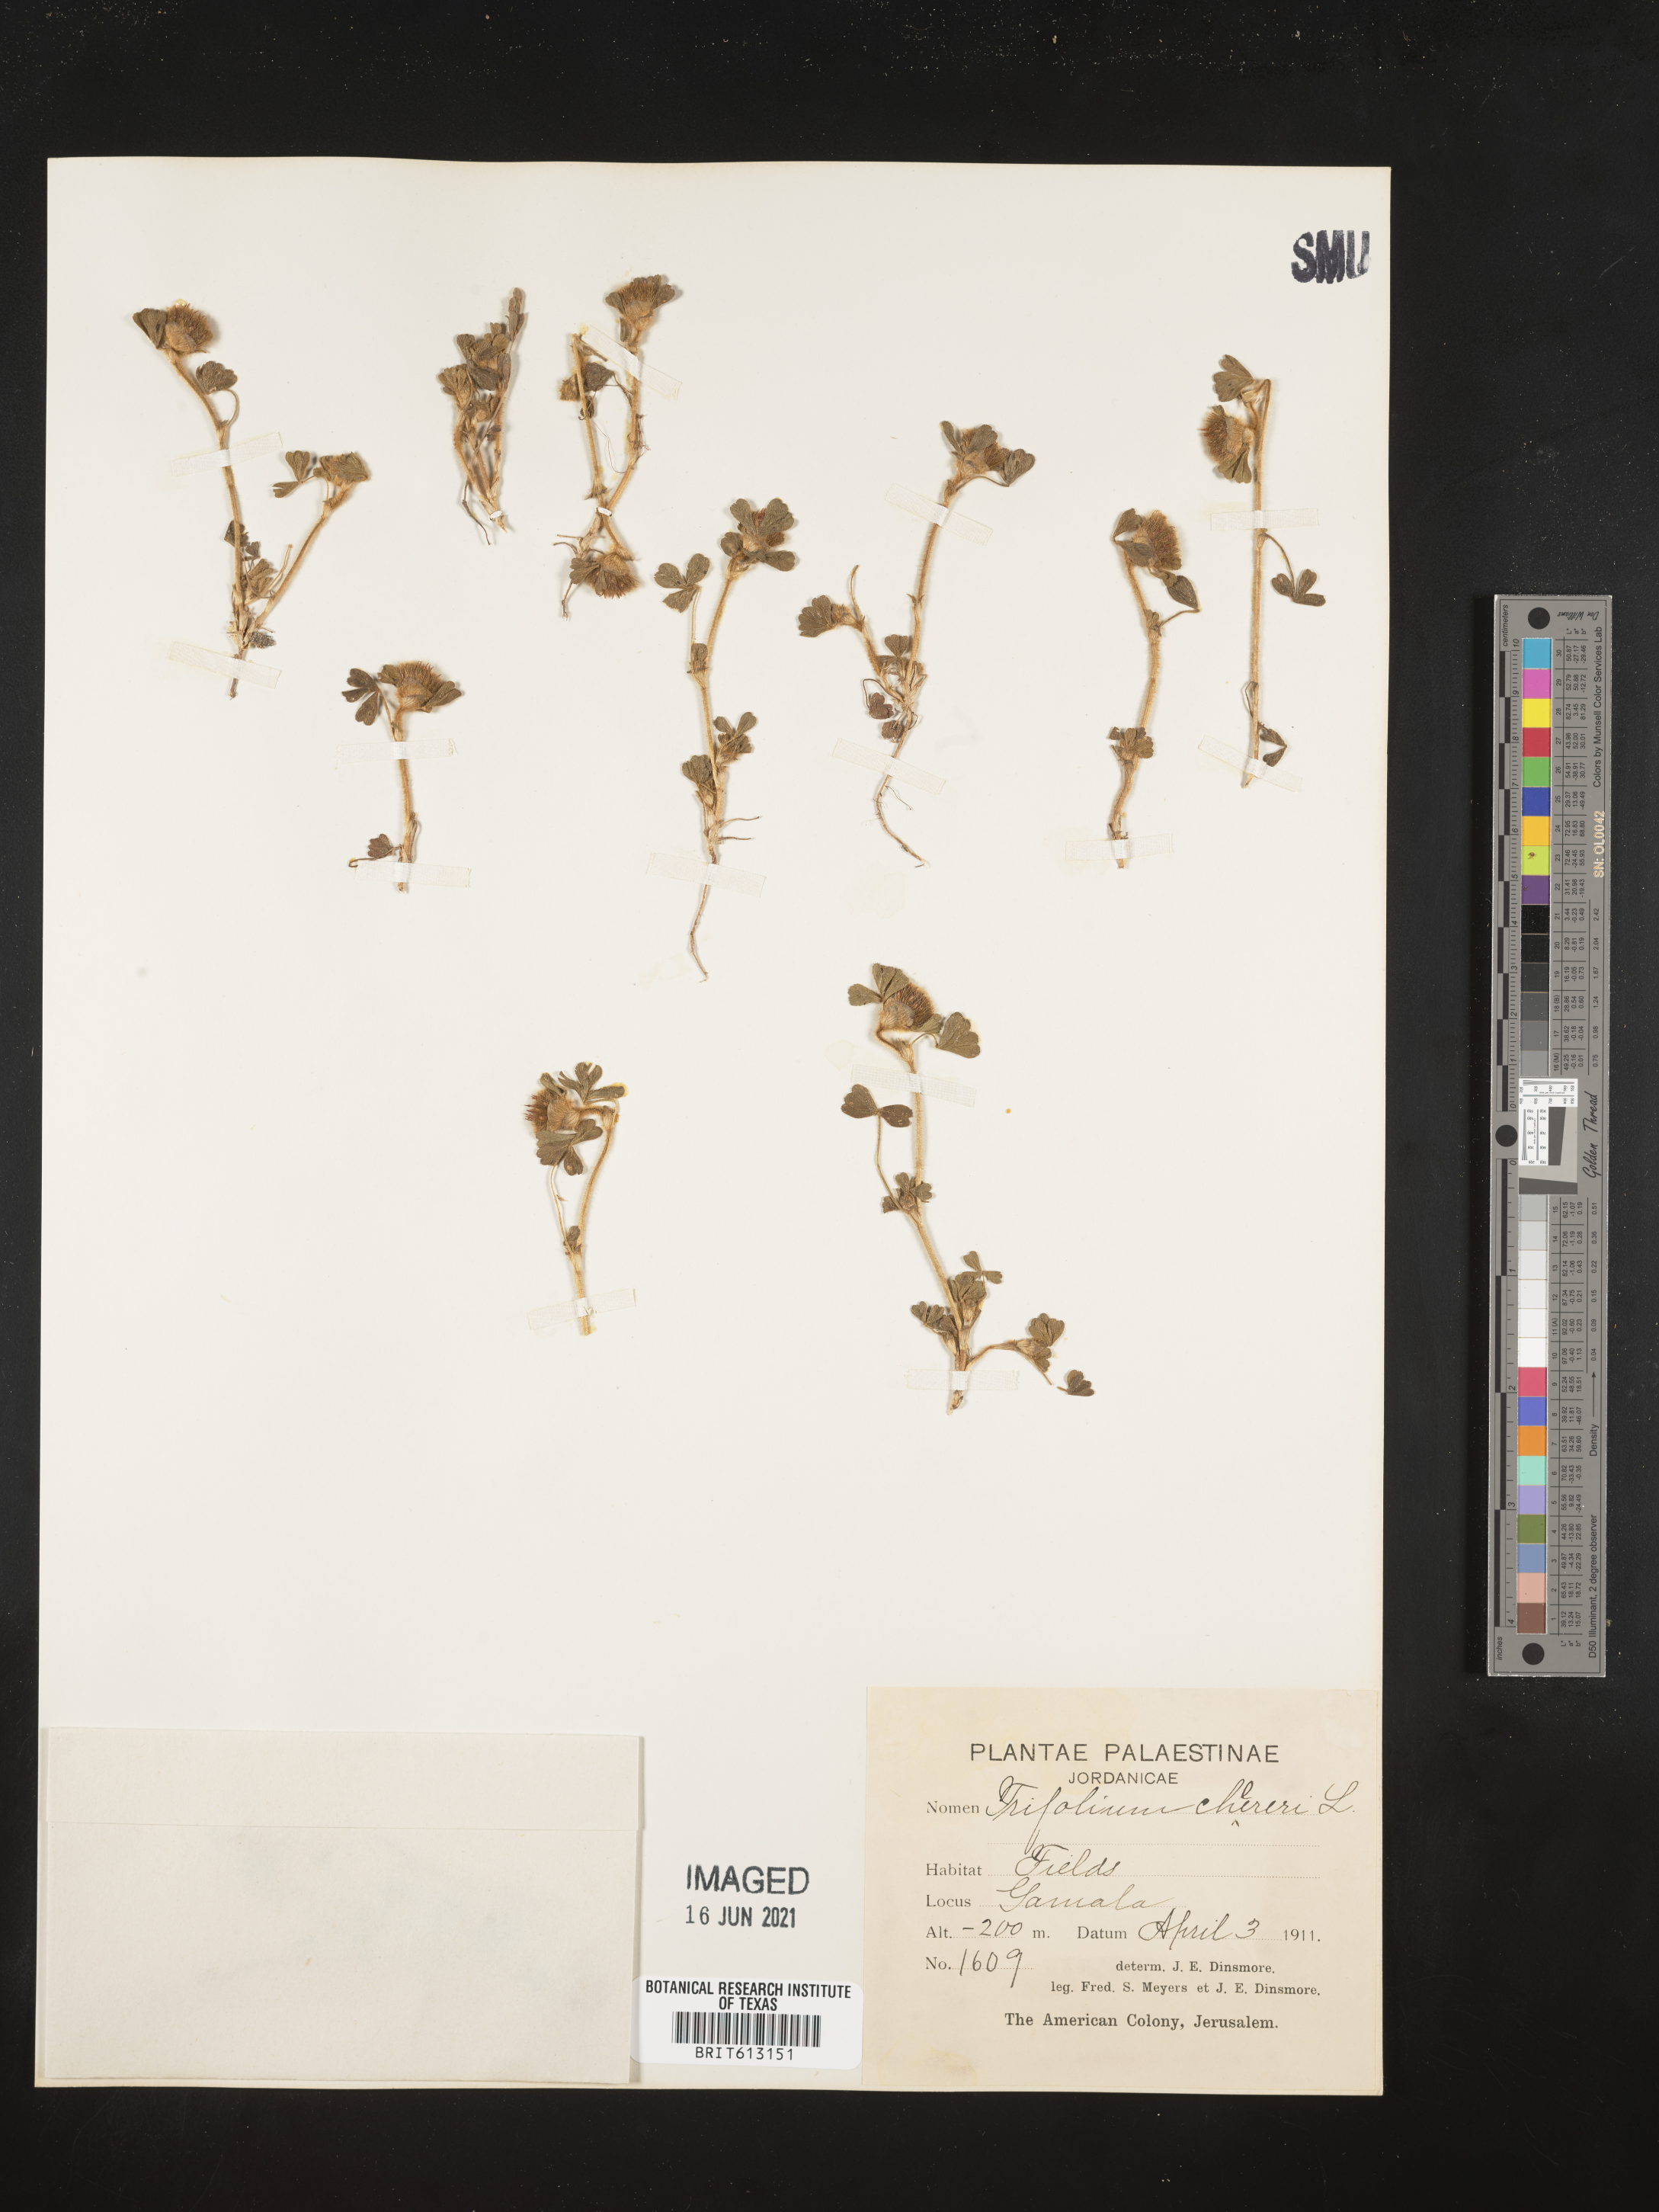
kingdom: Plantae
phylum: Tracheophyta
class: Magnoliopsida
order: Fabales
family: Fabaceae
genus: Trifolium
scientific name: Trifolium cherleri
